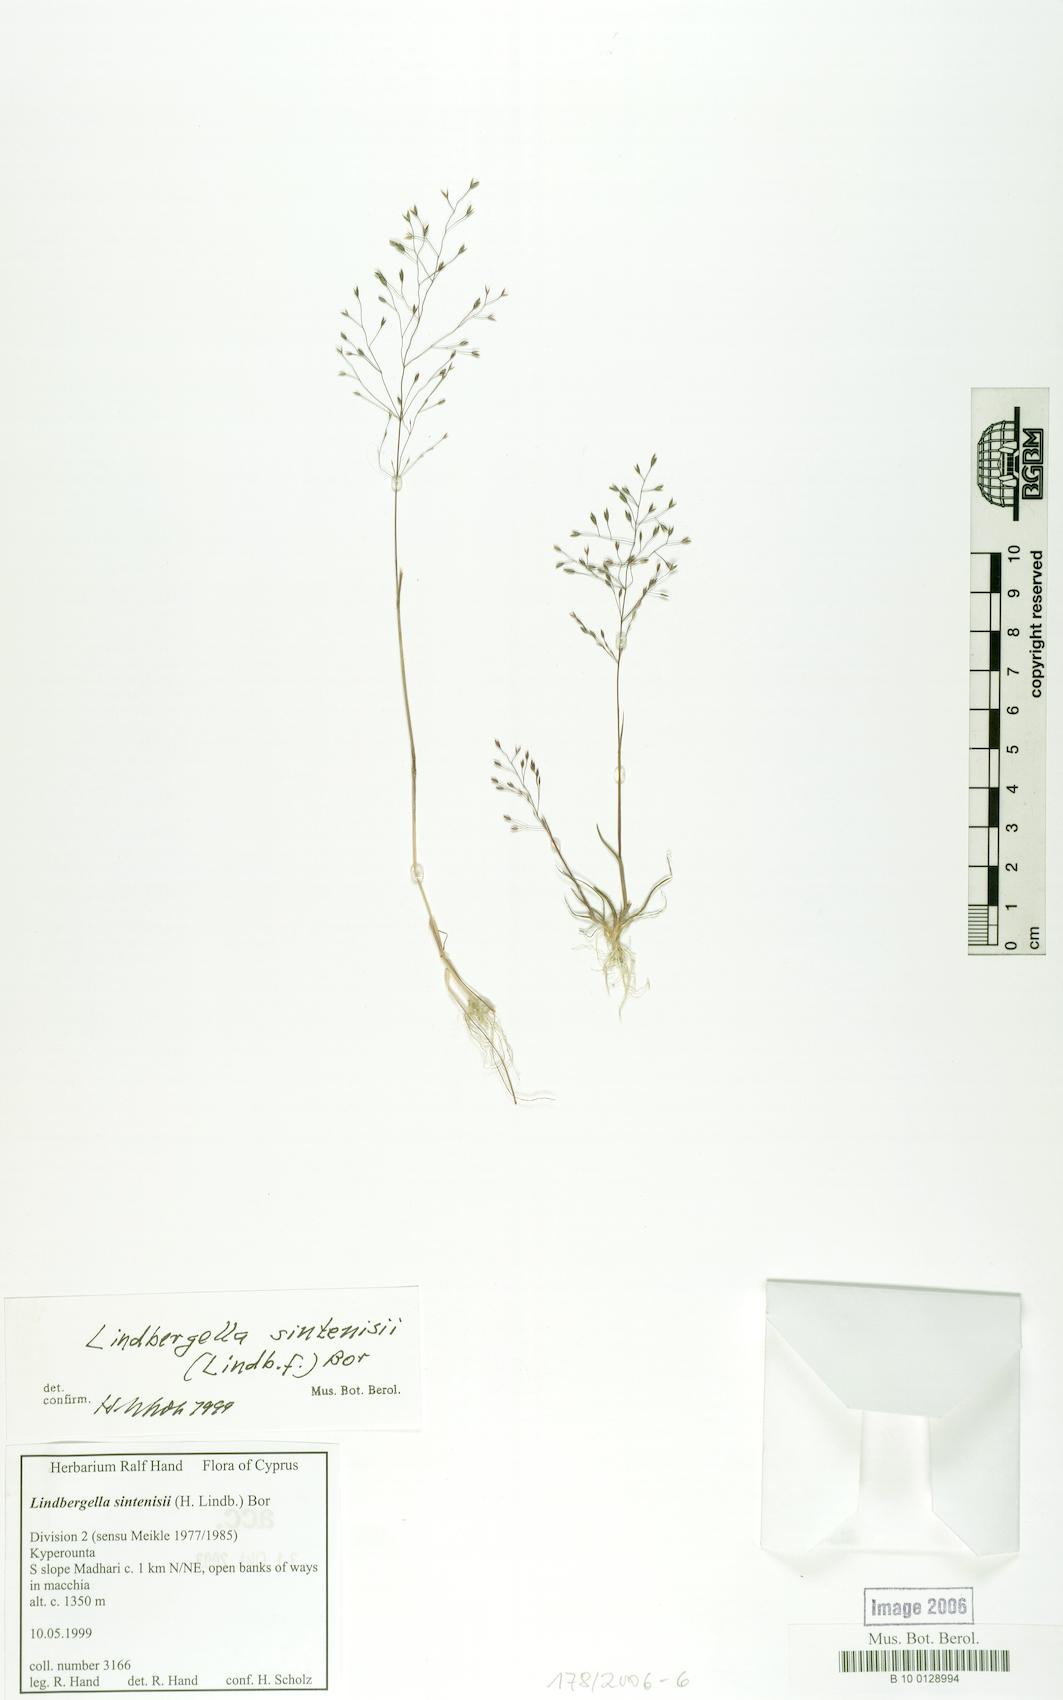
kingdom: Plantae
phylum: Tracheophyta
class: Liliopsida
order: Poales
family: Poaceae
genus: Poa
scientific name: Poa sintenisii
